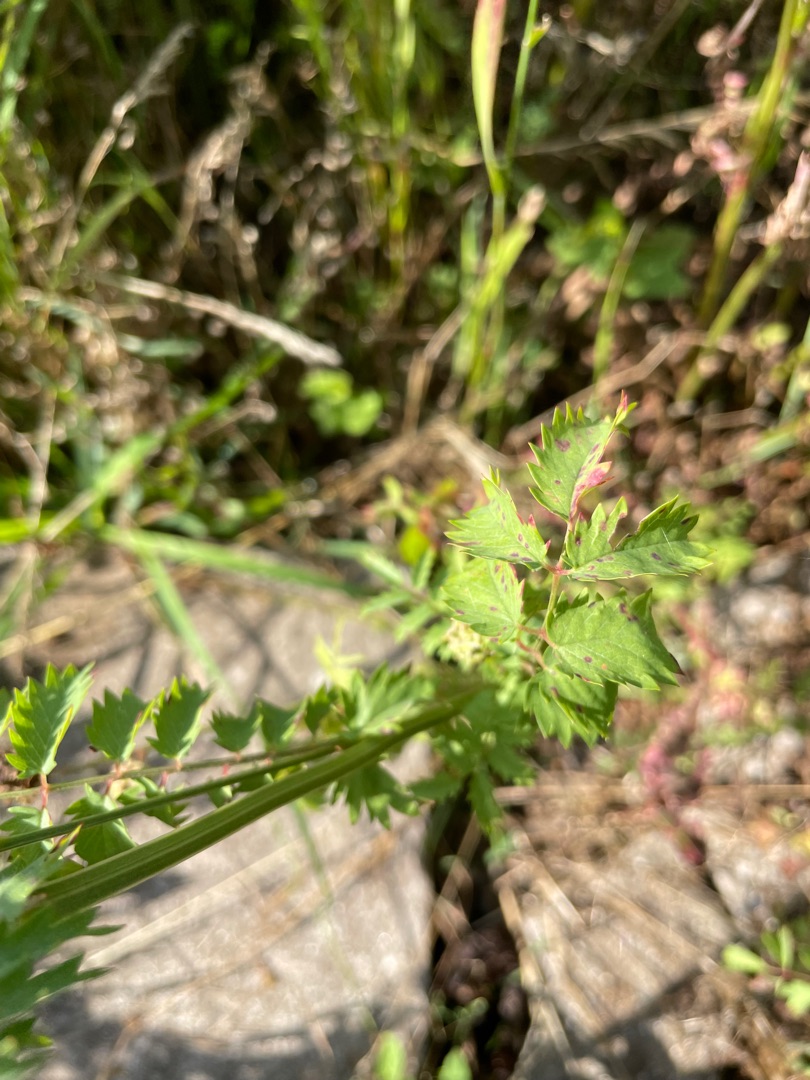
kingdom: Plantae
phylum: Tracheophyta
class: Magnoliopsida
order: Rosales
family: Rosaceae
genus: Poterium
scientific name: Poterium sanguisorba
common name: Vingefrøet bibernelle
